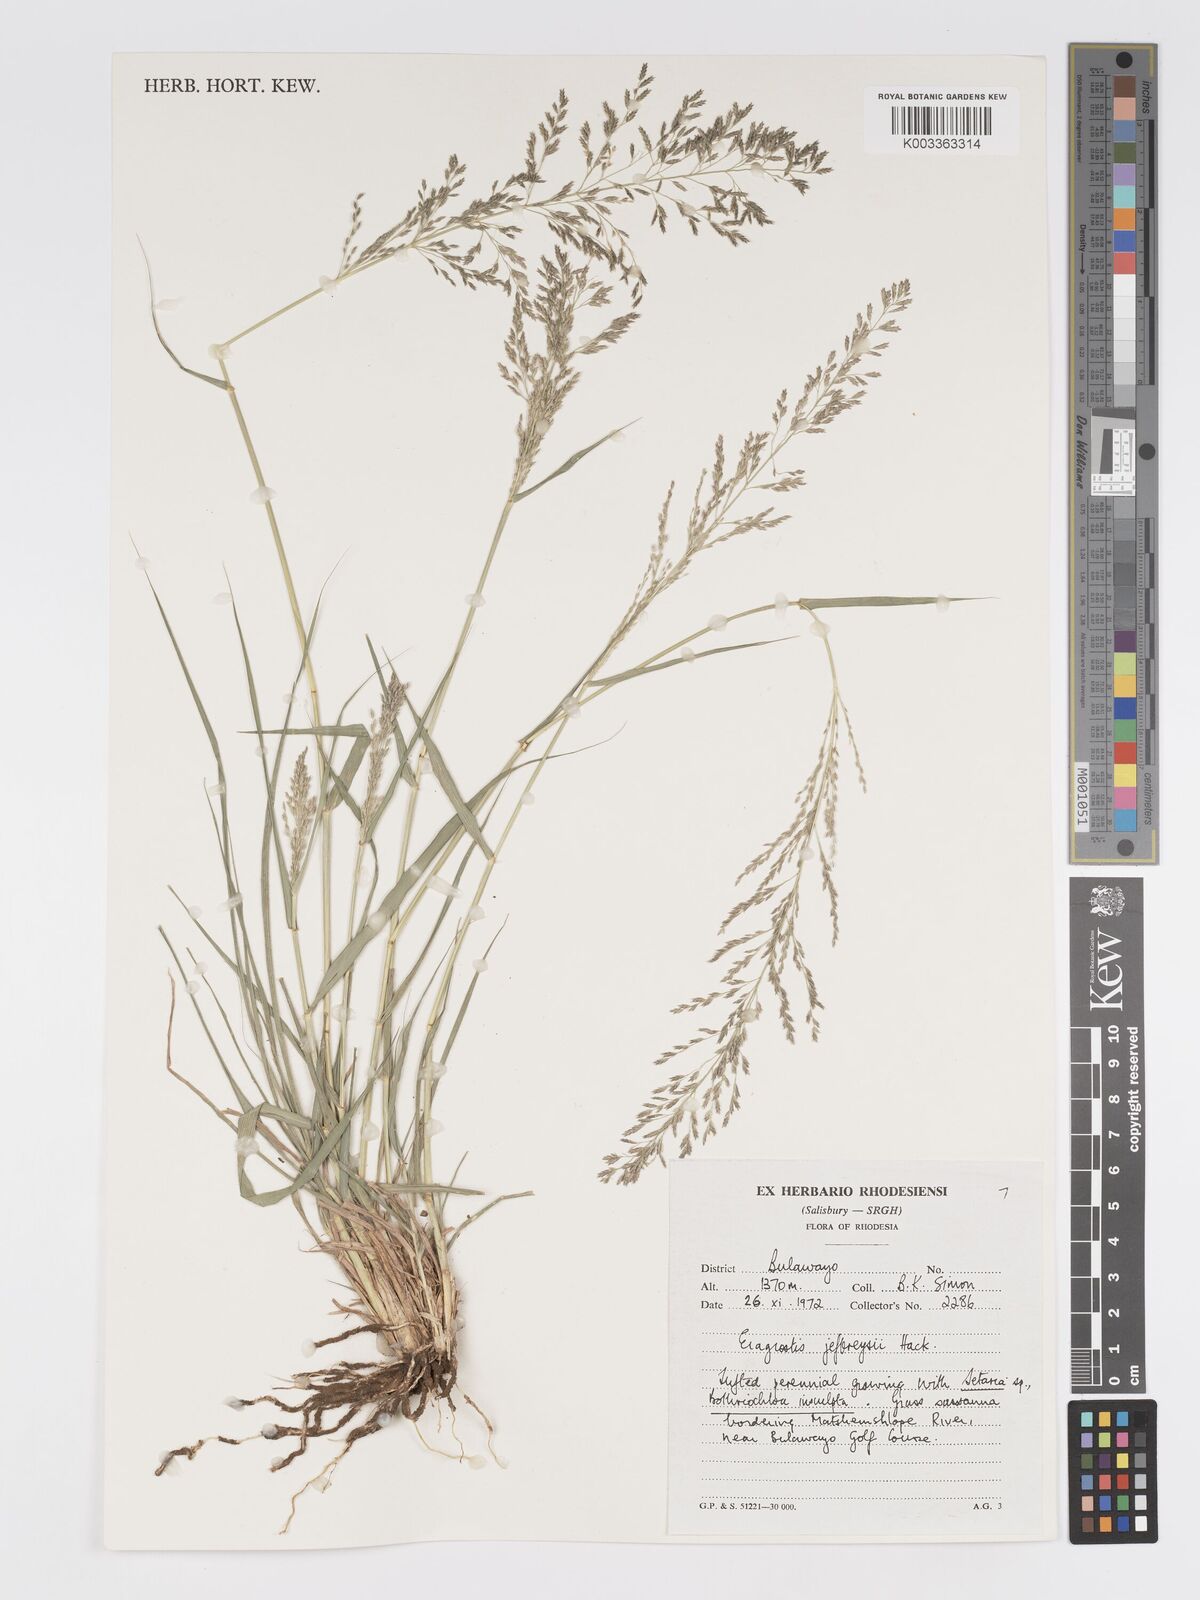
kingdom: Plantae
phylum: Tracheophyta
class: Liliopsida
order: Poales
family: Poaceae
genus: Eragrostis
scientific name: Eragrostis curvula
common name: African love-grass
